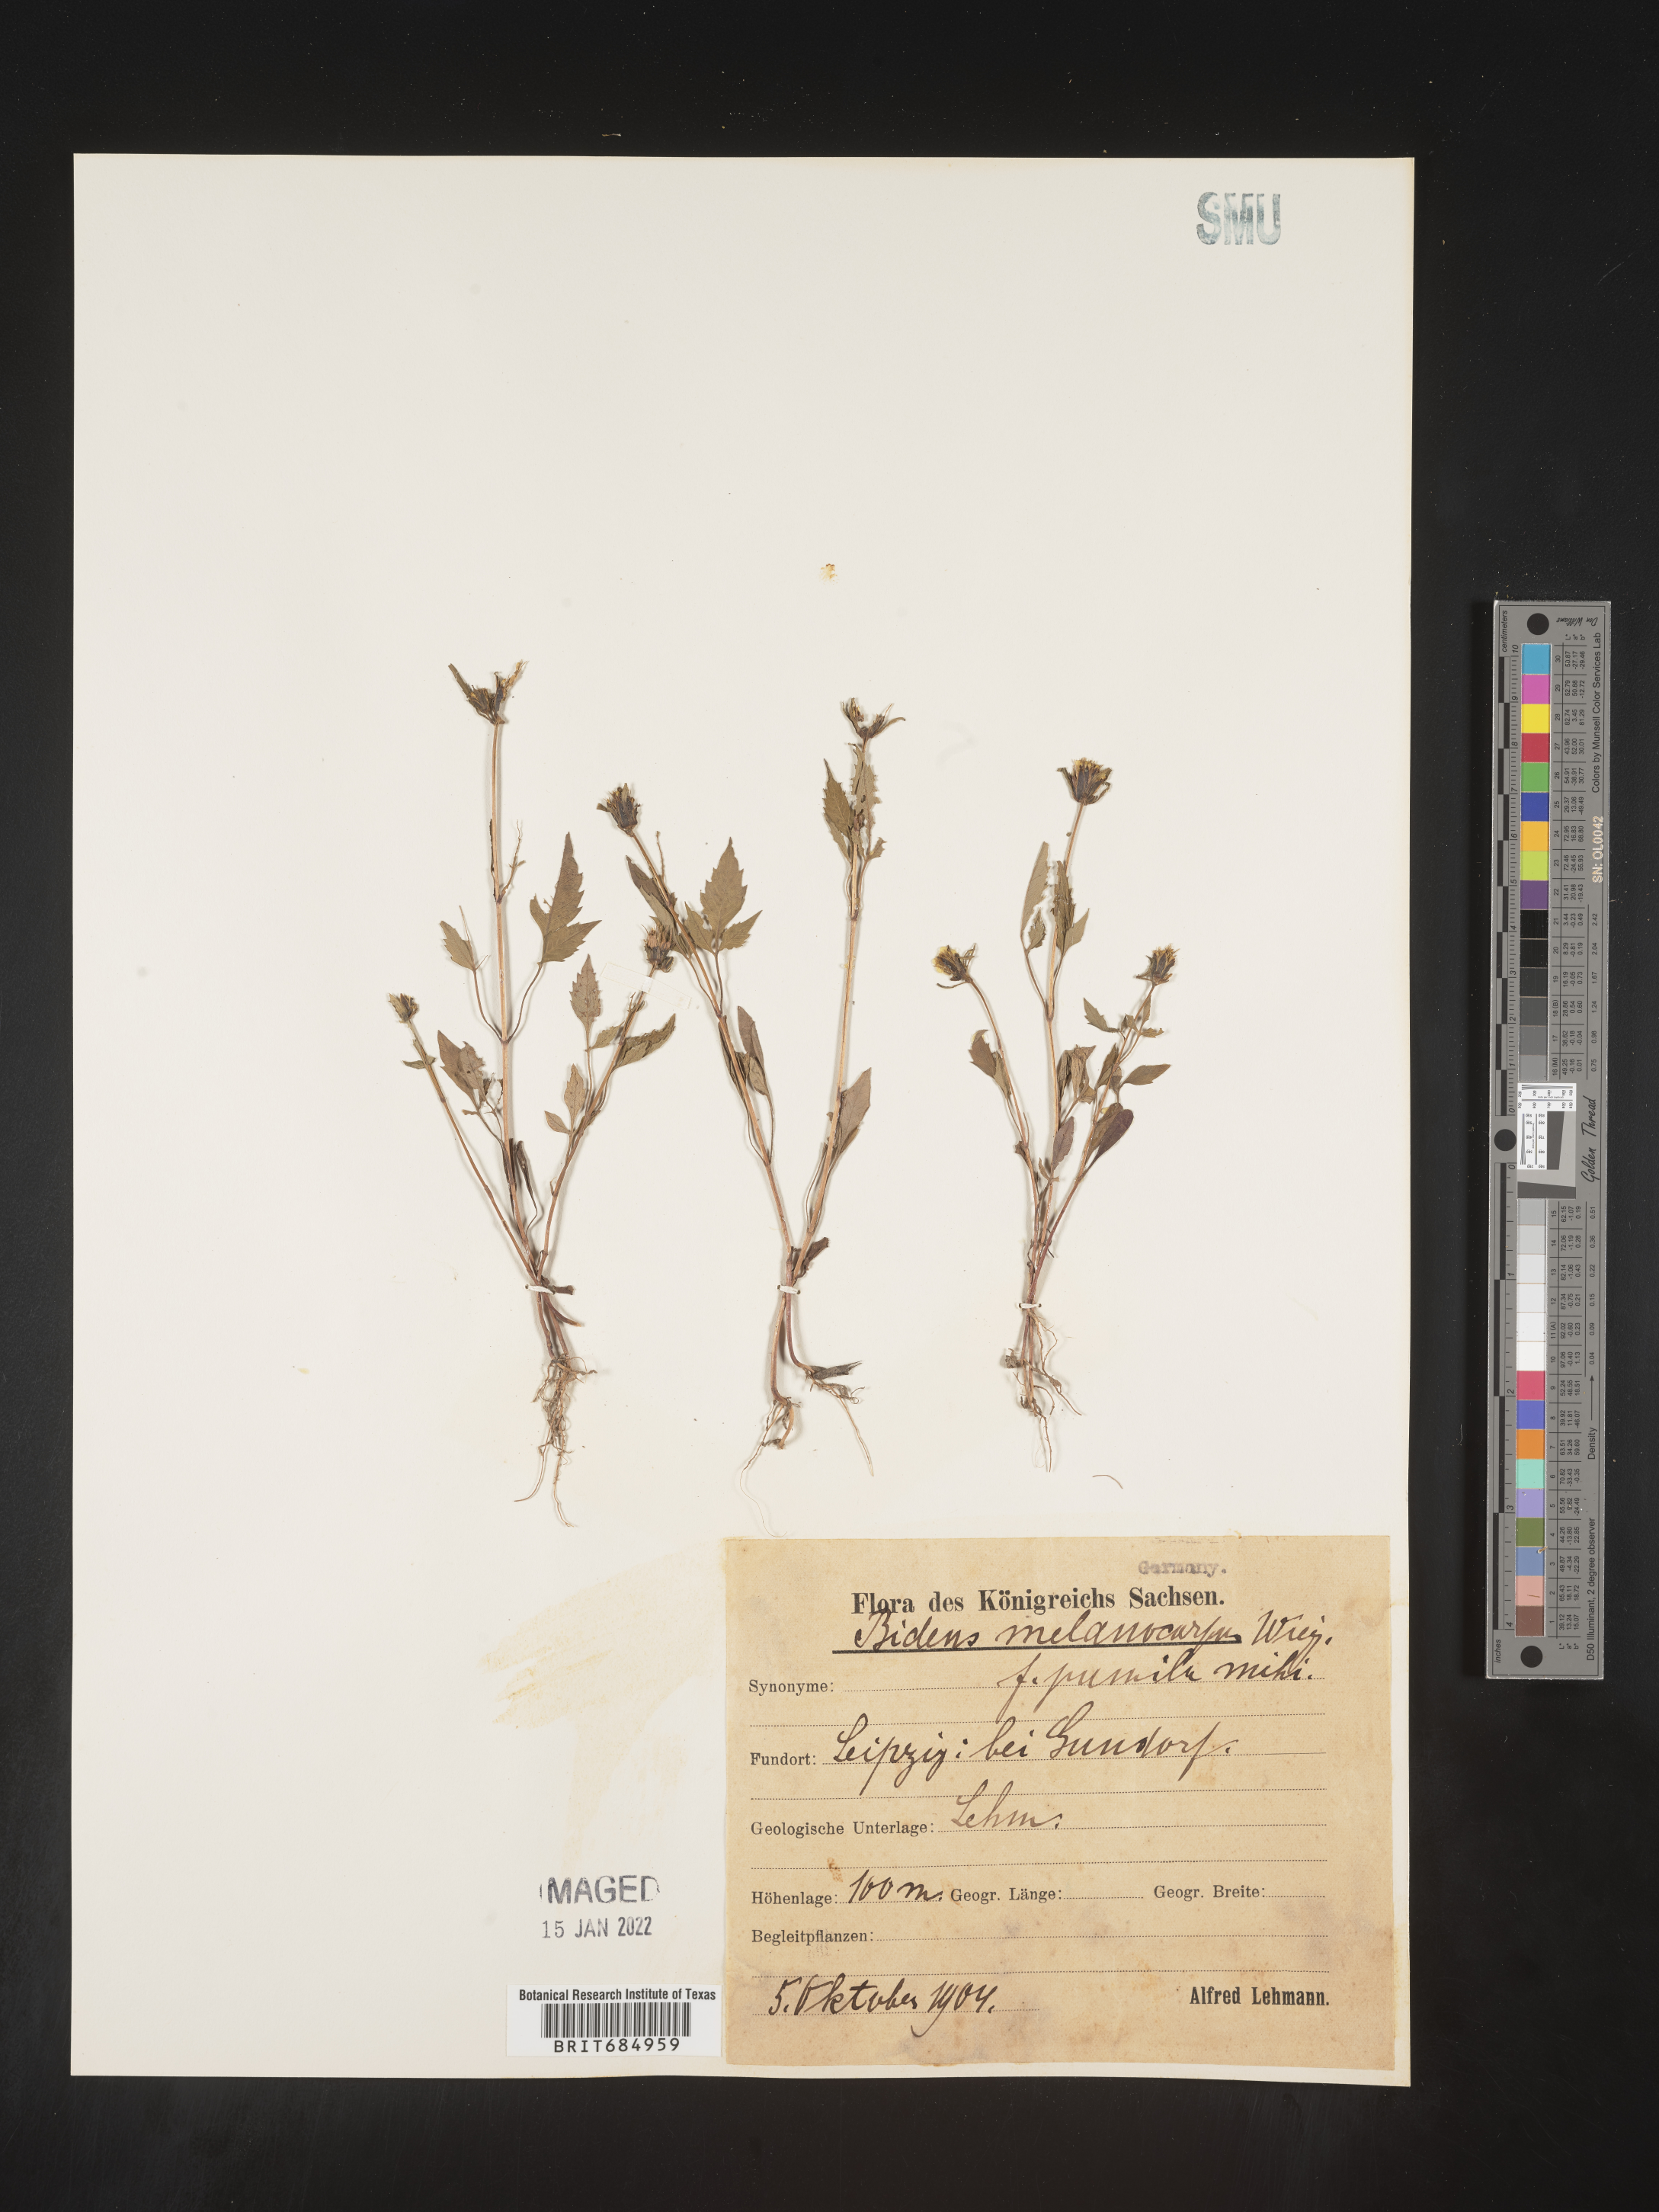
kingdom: Plantae
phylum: Tracheophyta
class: Magnoliopsida
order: Asterales
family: Asteraceae
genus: Bidens
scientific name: Bidens
